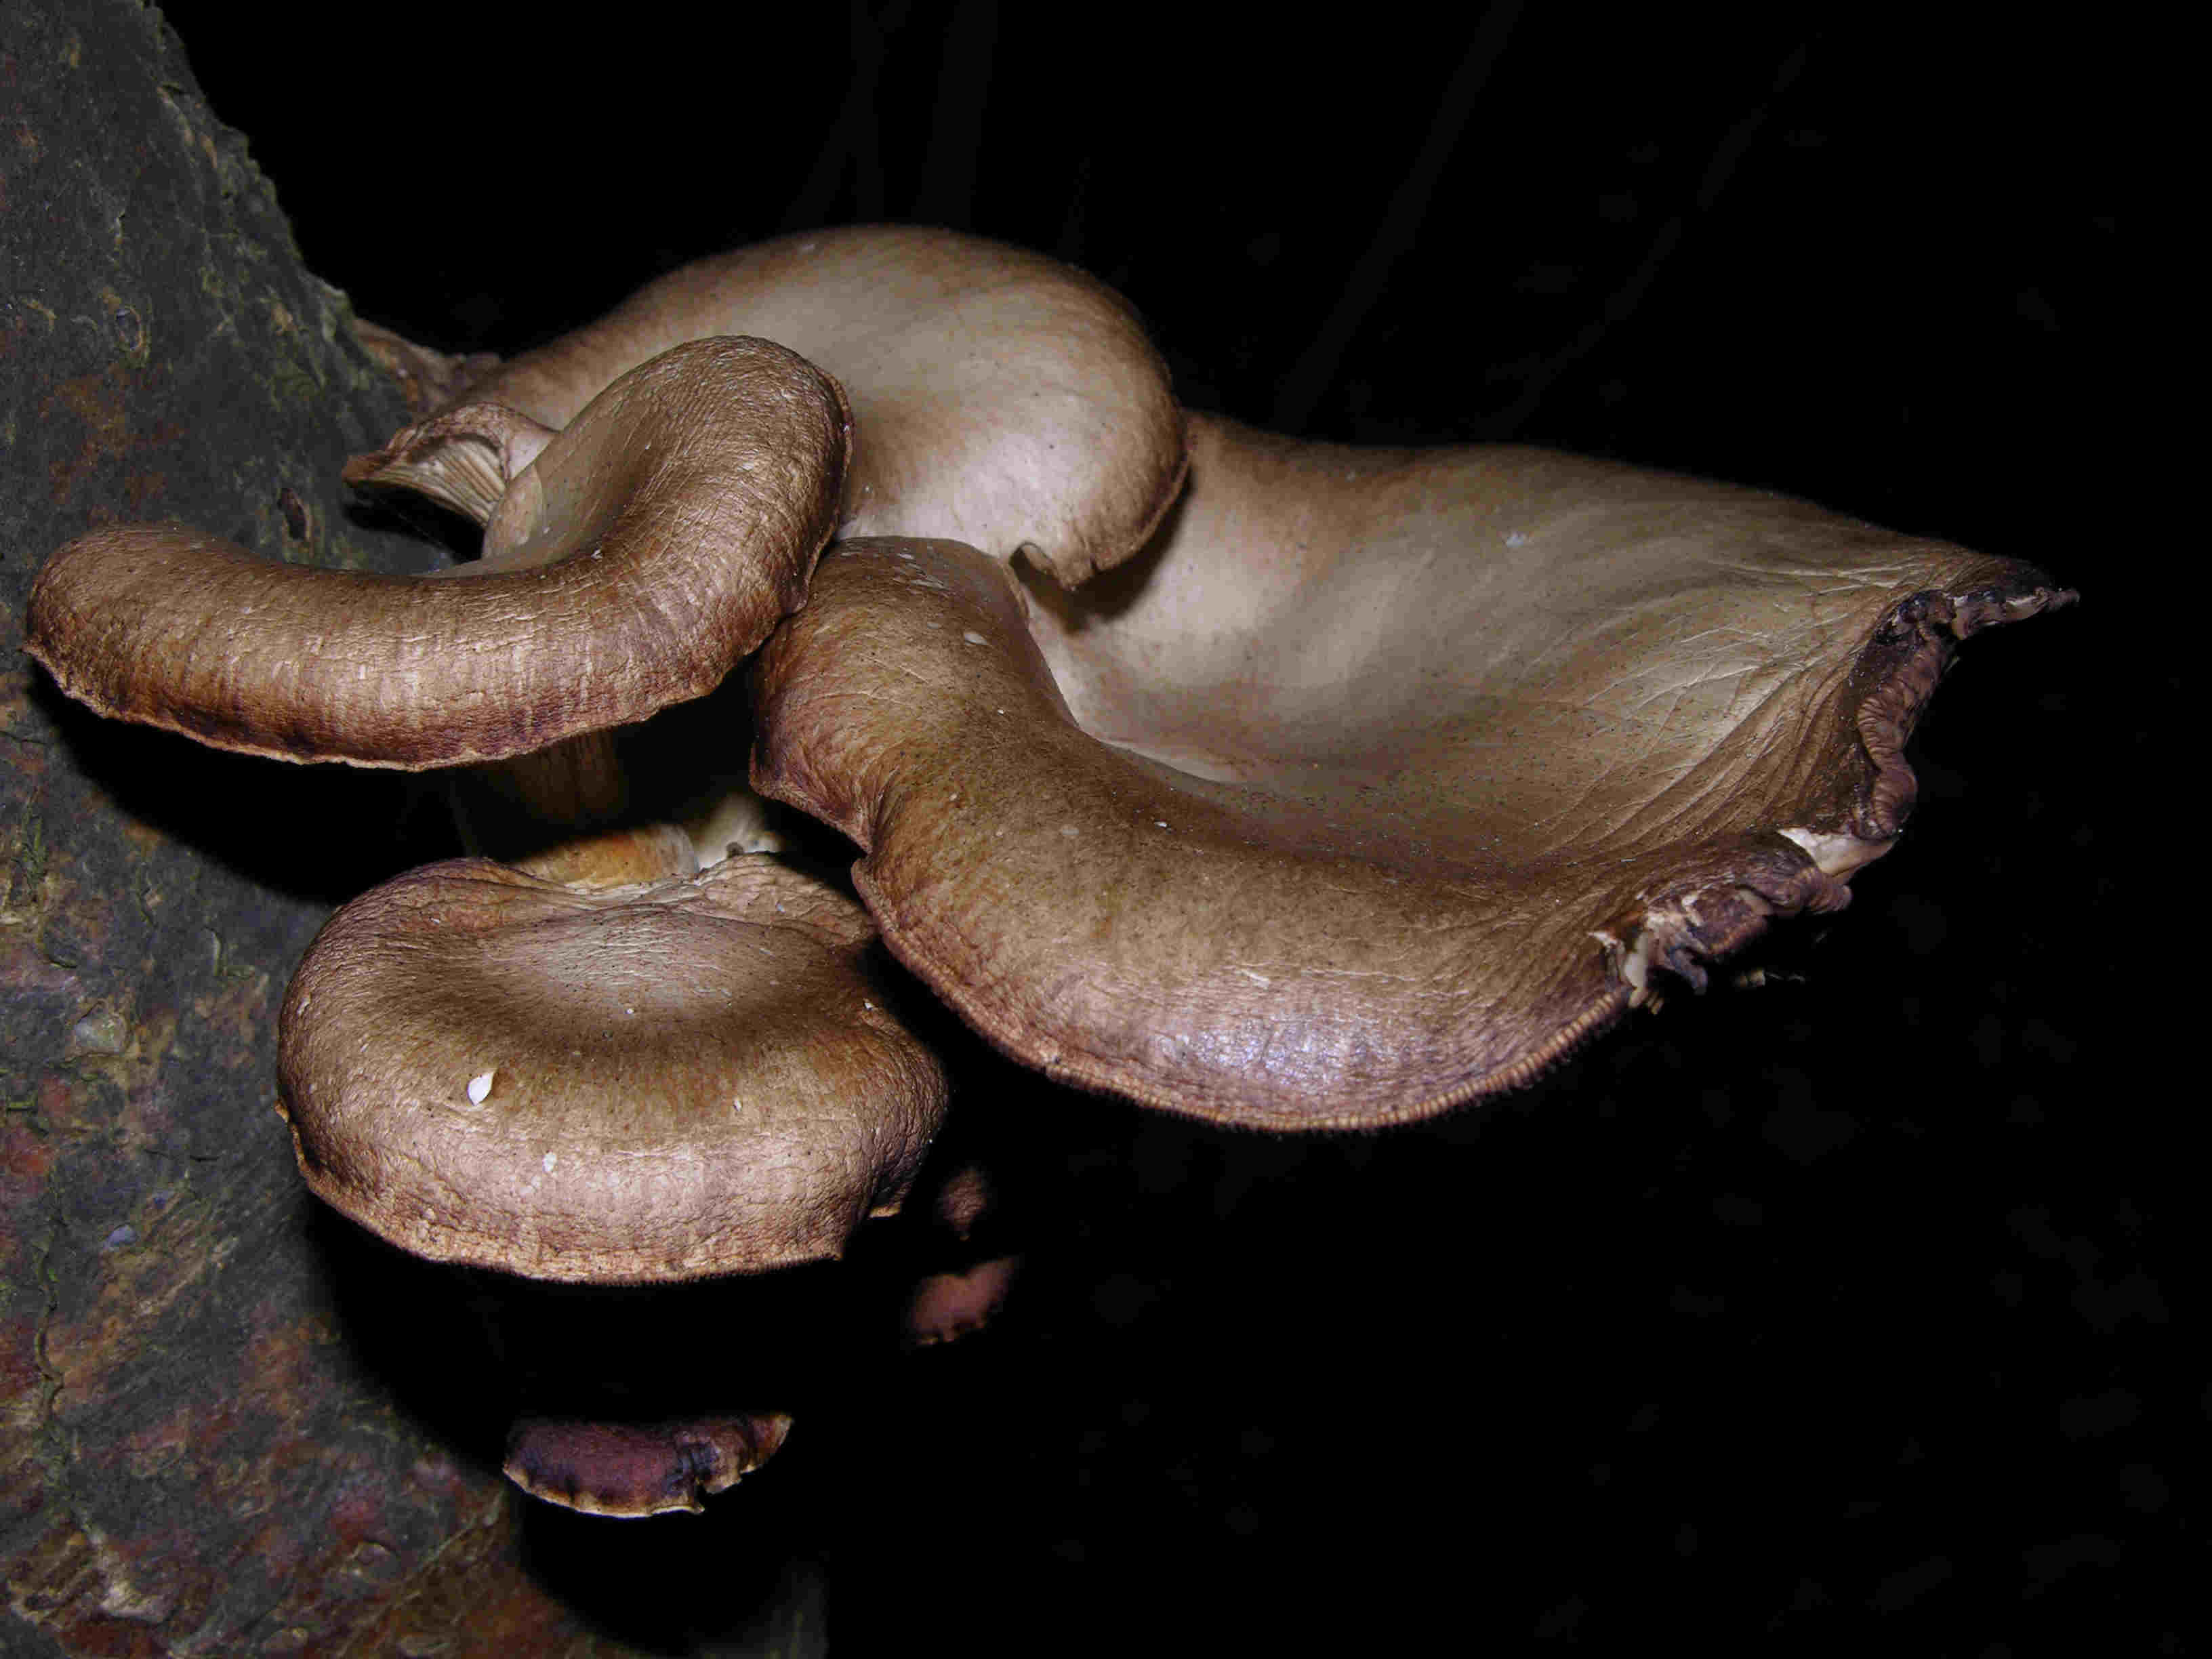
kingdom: Fungi
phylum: Basidiomycota
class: Agaricomycetes
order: Agaricales
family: Pleurotaceae
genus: Pleurotus
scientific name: Pleurotus ostreatus
